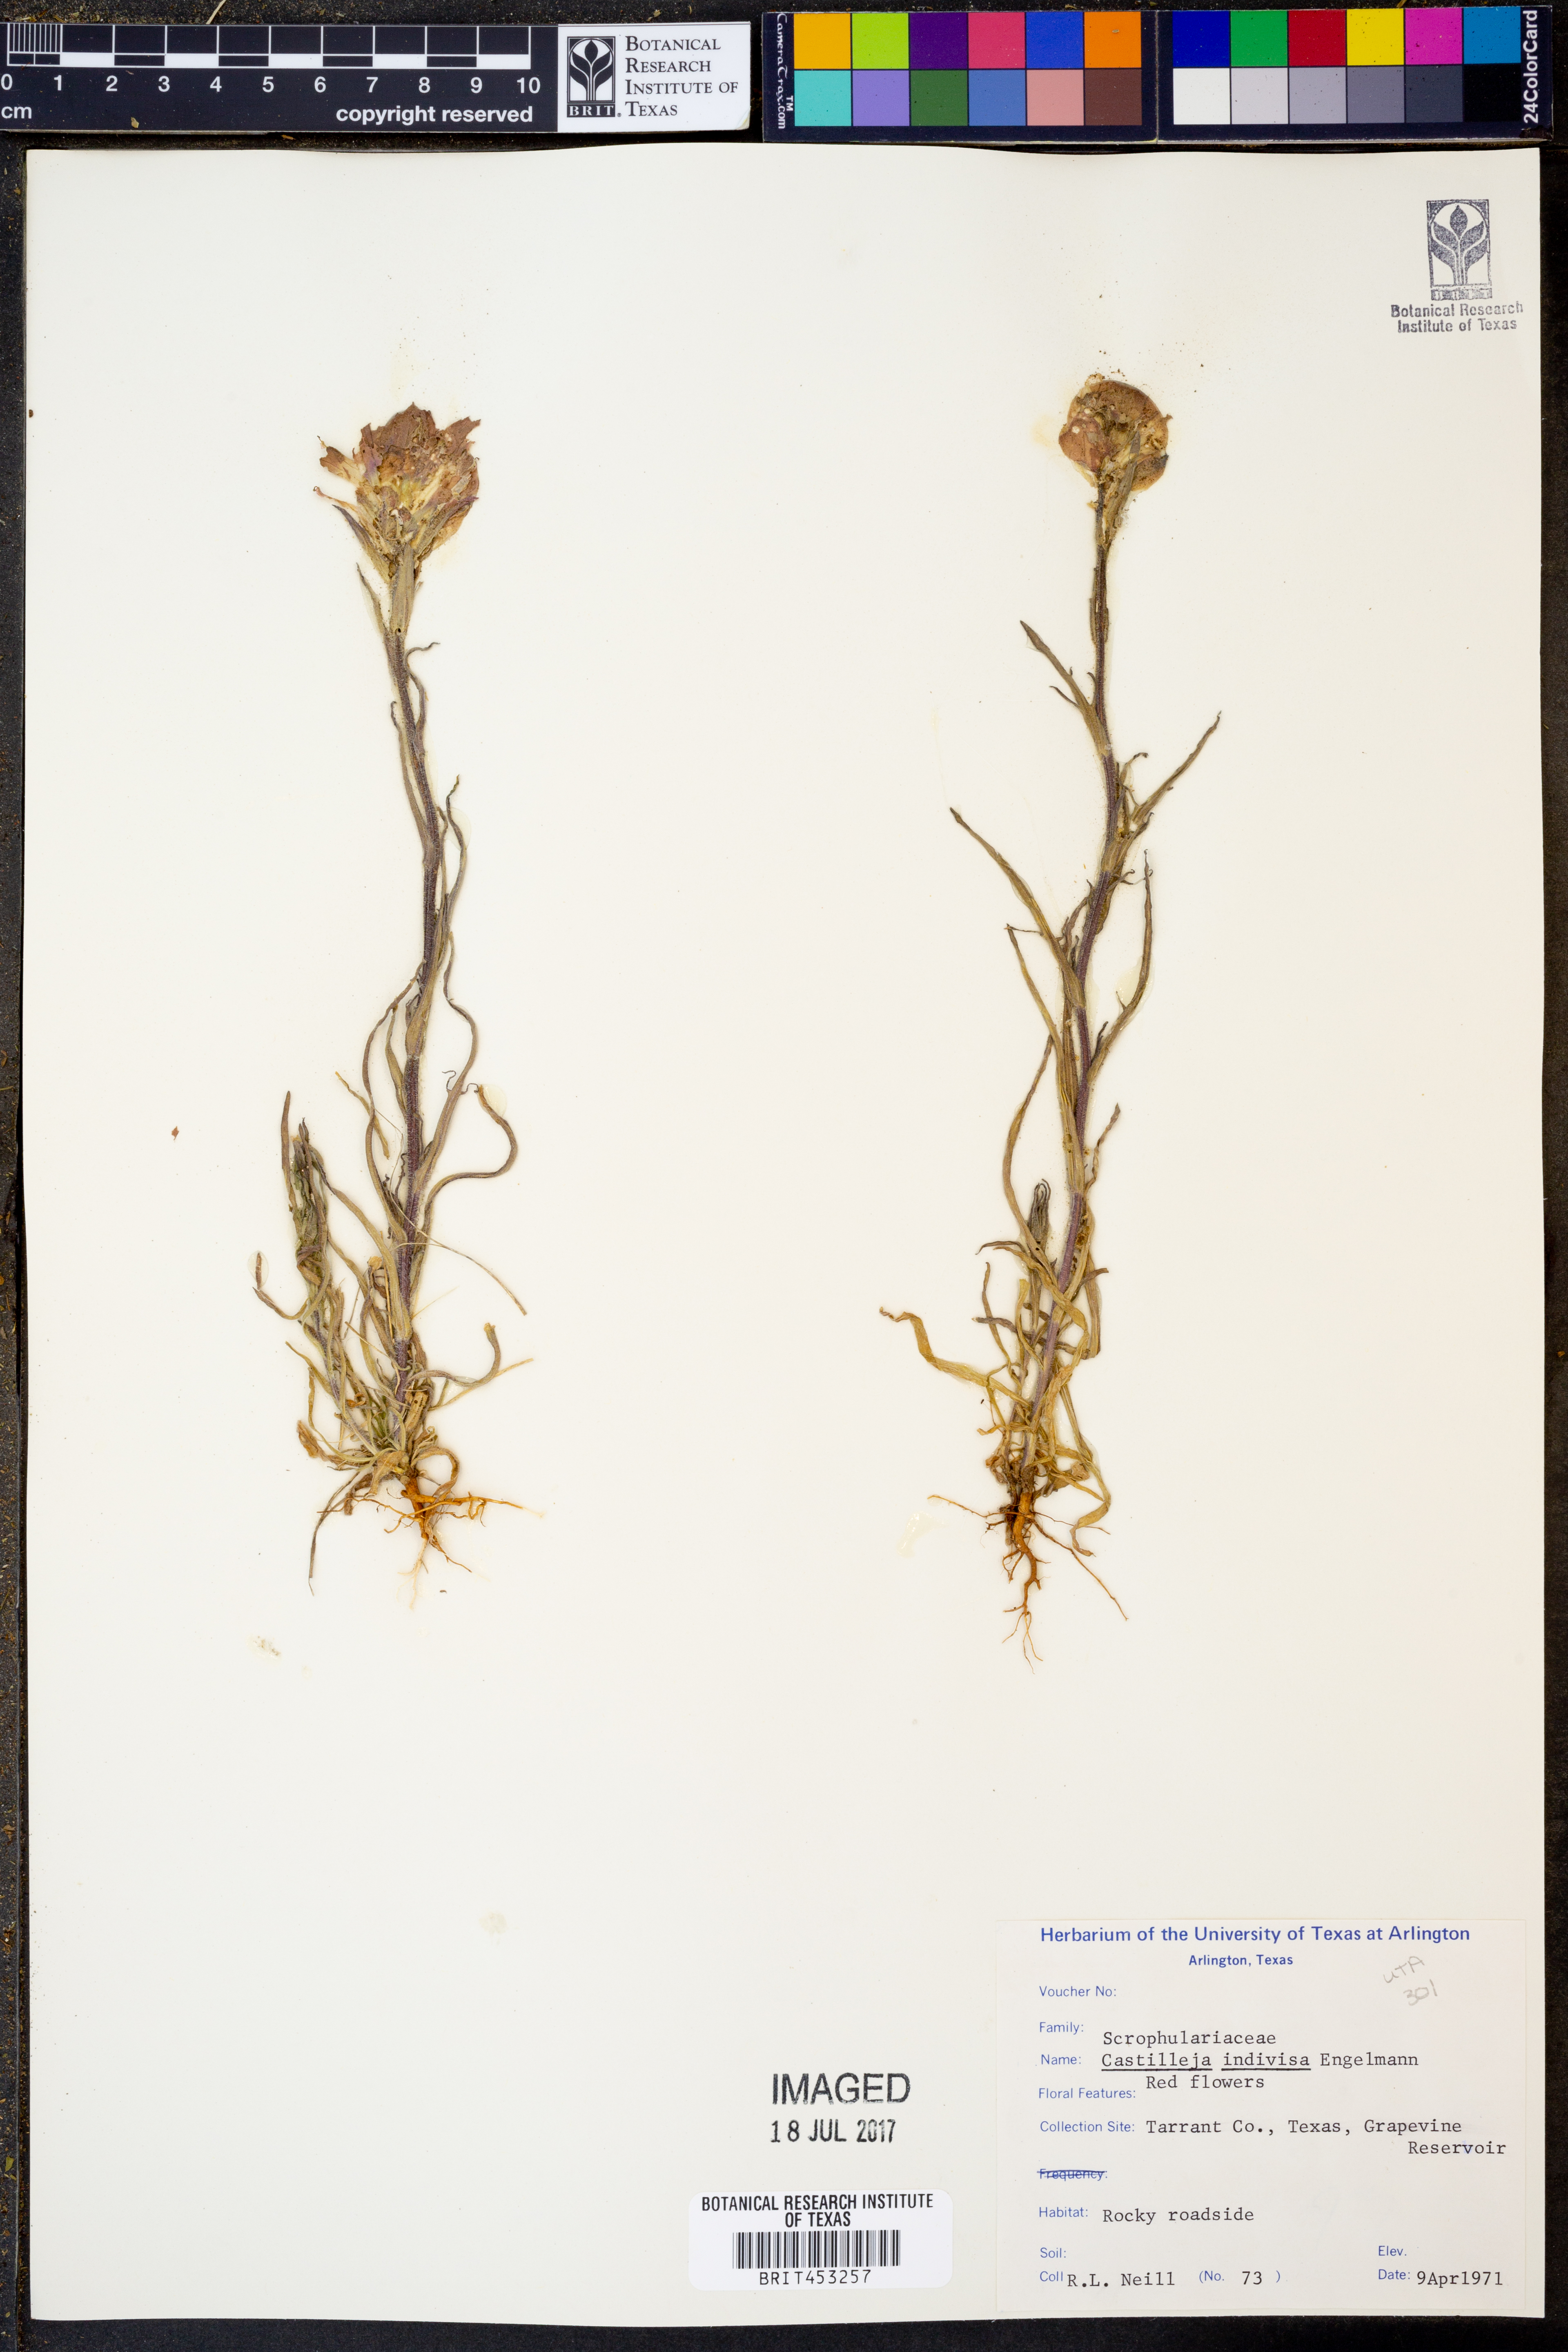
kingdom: Plantae
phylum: Tracheophyta
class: Magnoliopsida
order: Lamiales
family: Orobanchaceae
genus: Castilleja
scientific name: Castilleja indivisa
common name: Texas paintbrush
